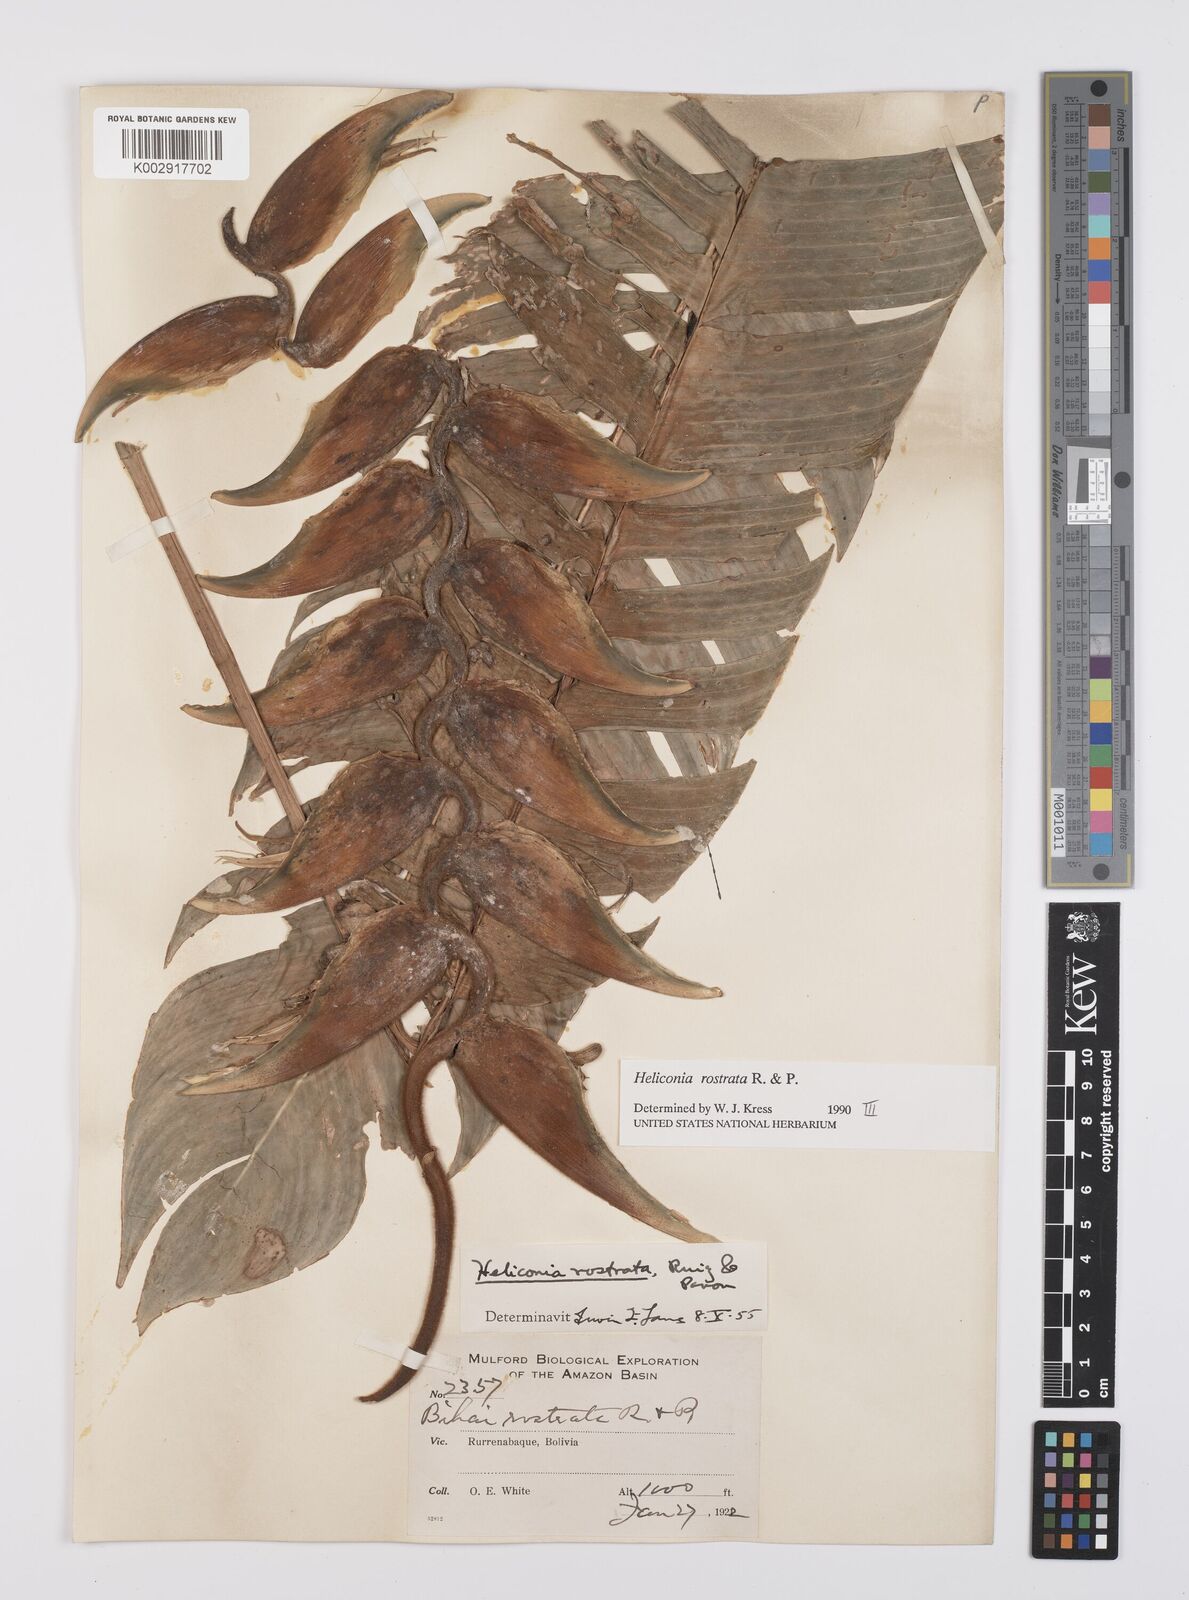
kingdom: Plantae
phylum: Tracheophyta
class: Liliopsida
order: Zingiberales
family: Heliconiaceae
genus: Heliconia
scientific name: Heliconia rostrata
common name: False bird of paradise
